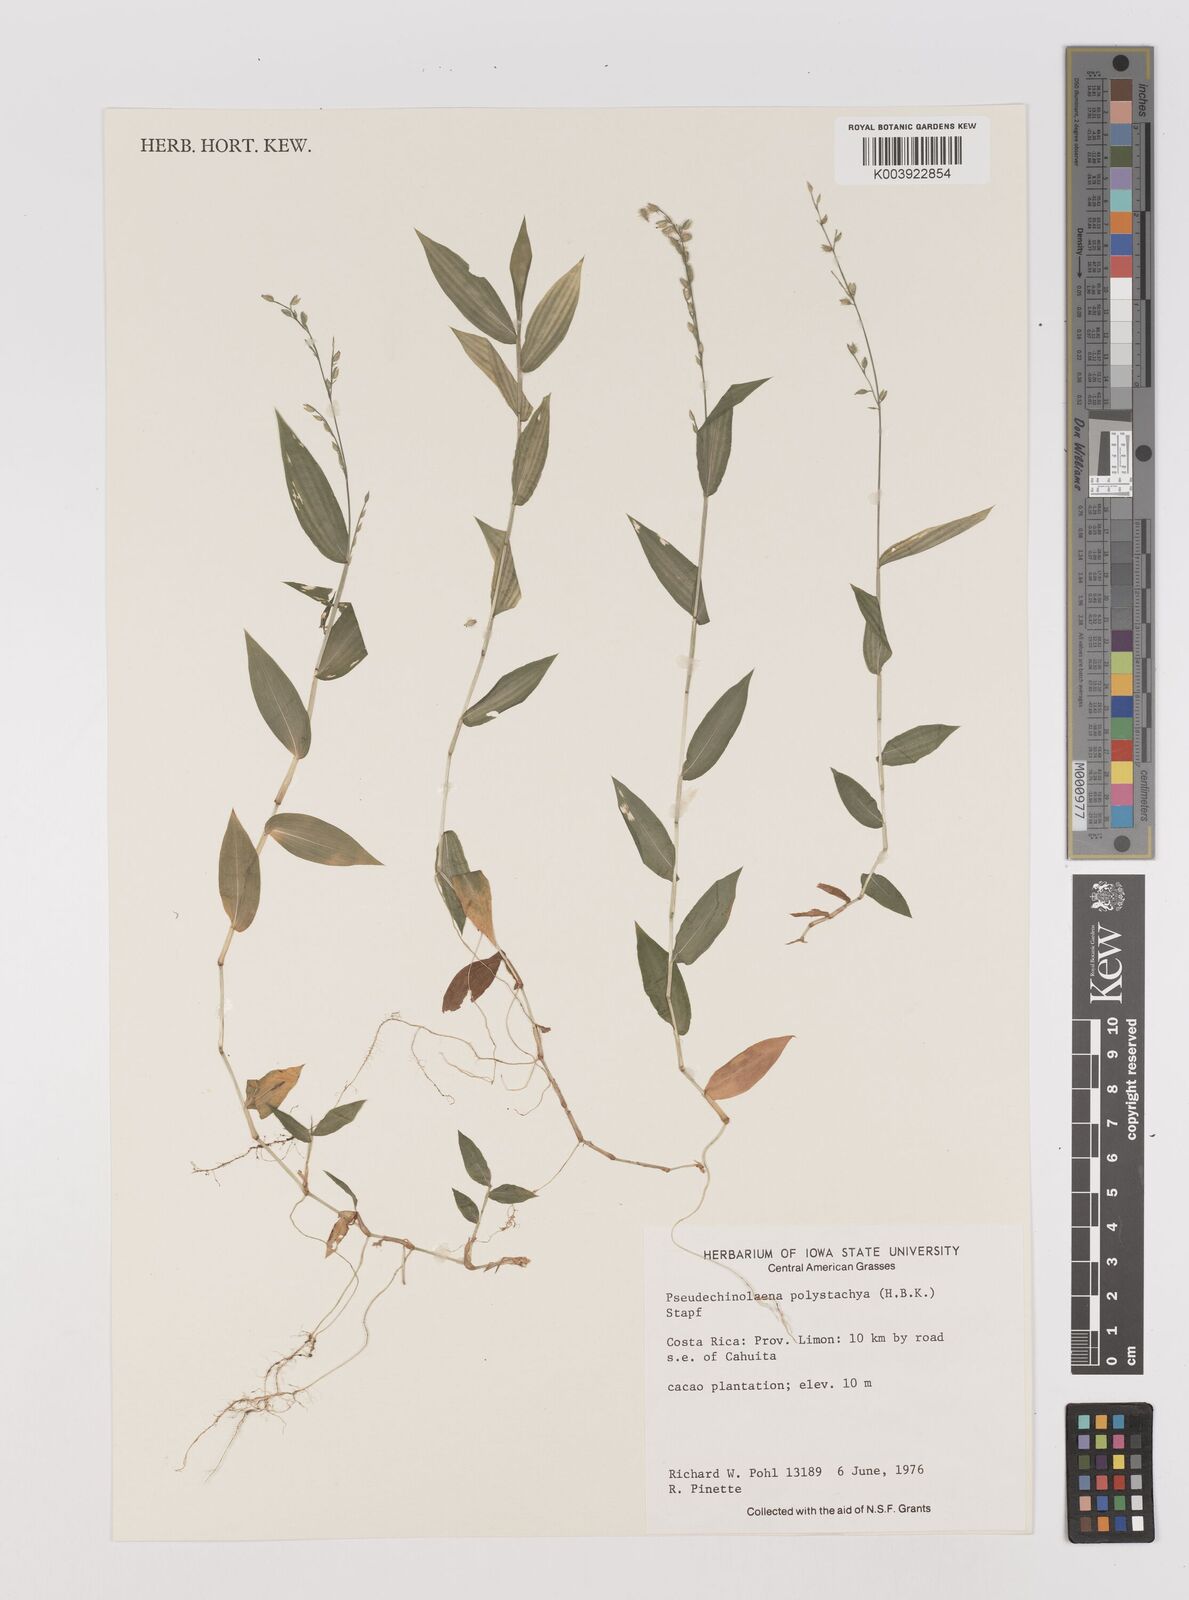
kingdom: Plantae
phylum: Tracheophyta
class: Liliopsida
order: Poales
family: Poaceae
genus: Pseudechinolaena
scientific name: Pseudechinolaena polystachya
